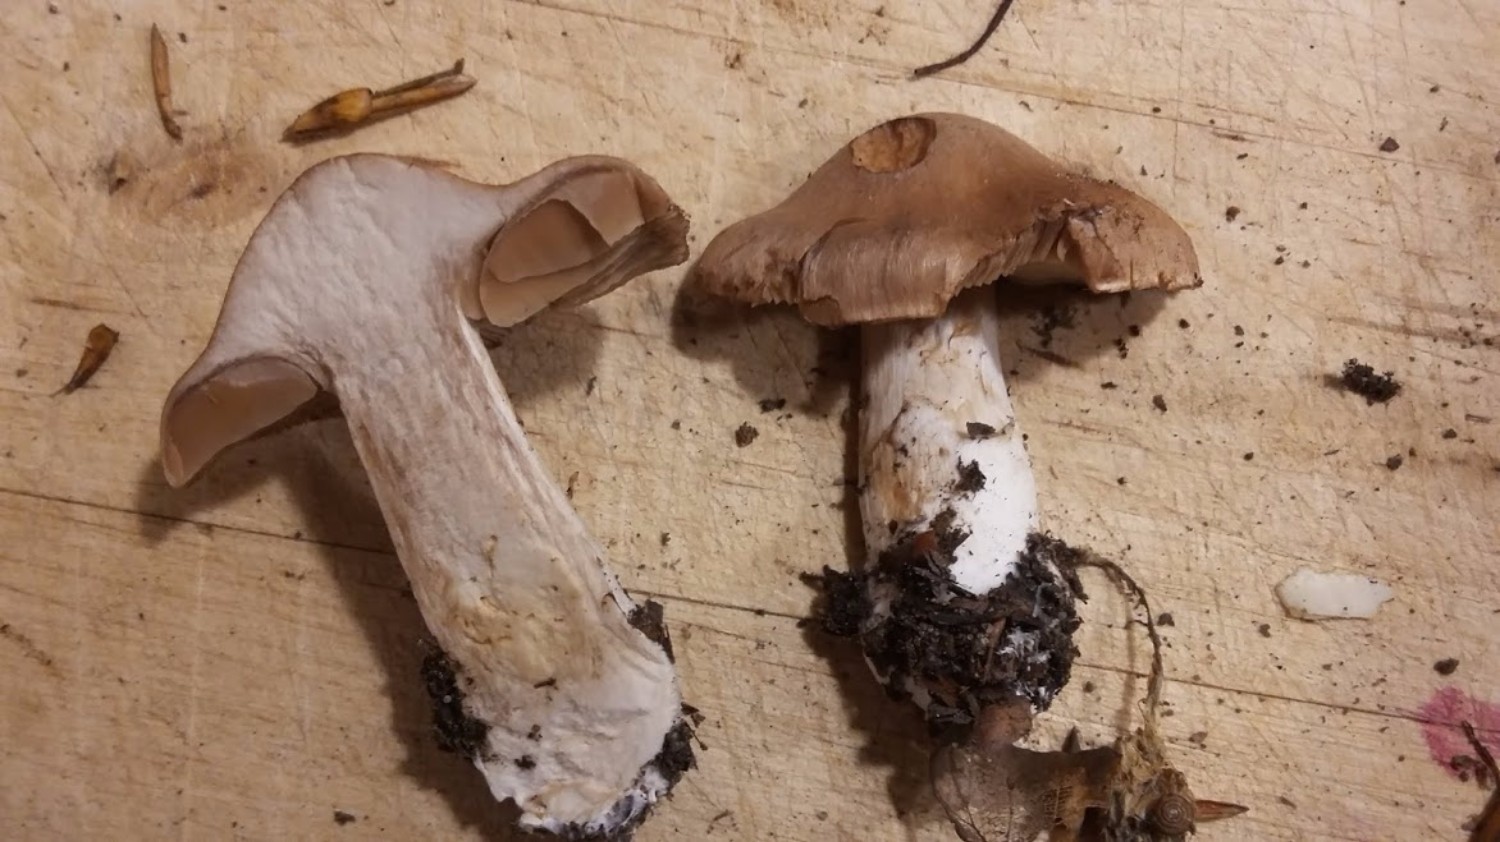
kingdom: Fungi
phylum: Basidiomycota
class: Agaricomycetes
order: Agaricales
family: Cortinariaceae
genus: Cortinarius
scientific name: Cortinarius
